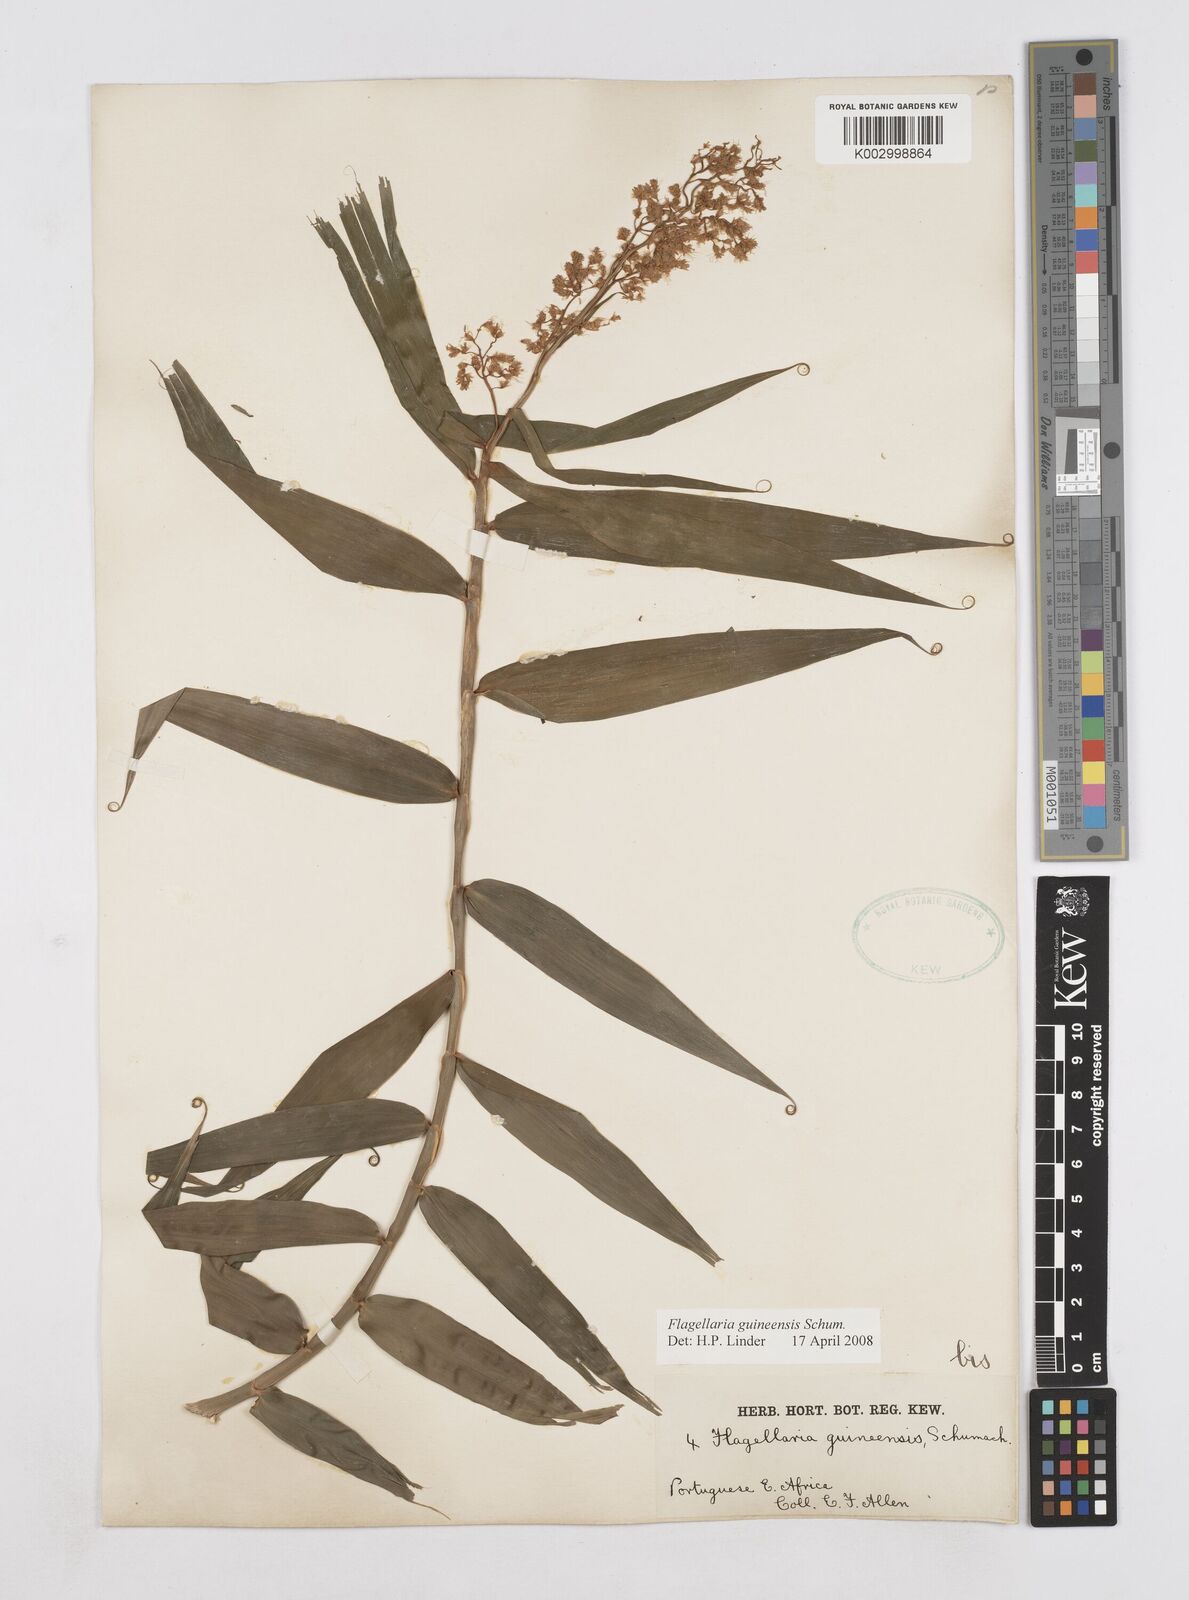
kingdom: Plantae
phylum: Tracheophyta
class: Liliopsida
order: Poales
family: Flagellariaceae
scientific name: Flagellariaceae
